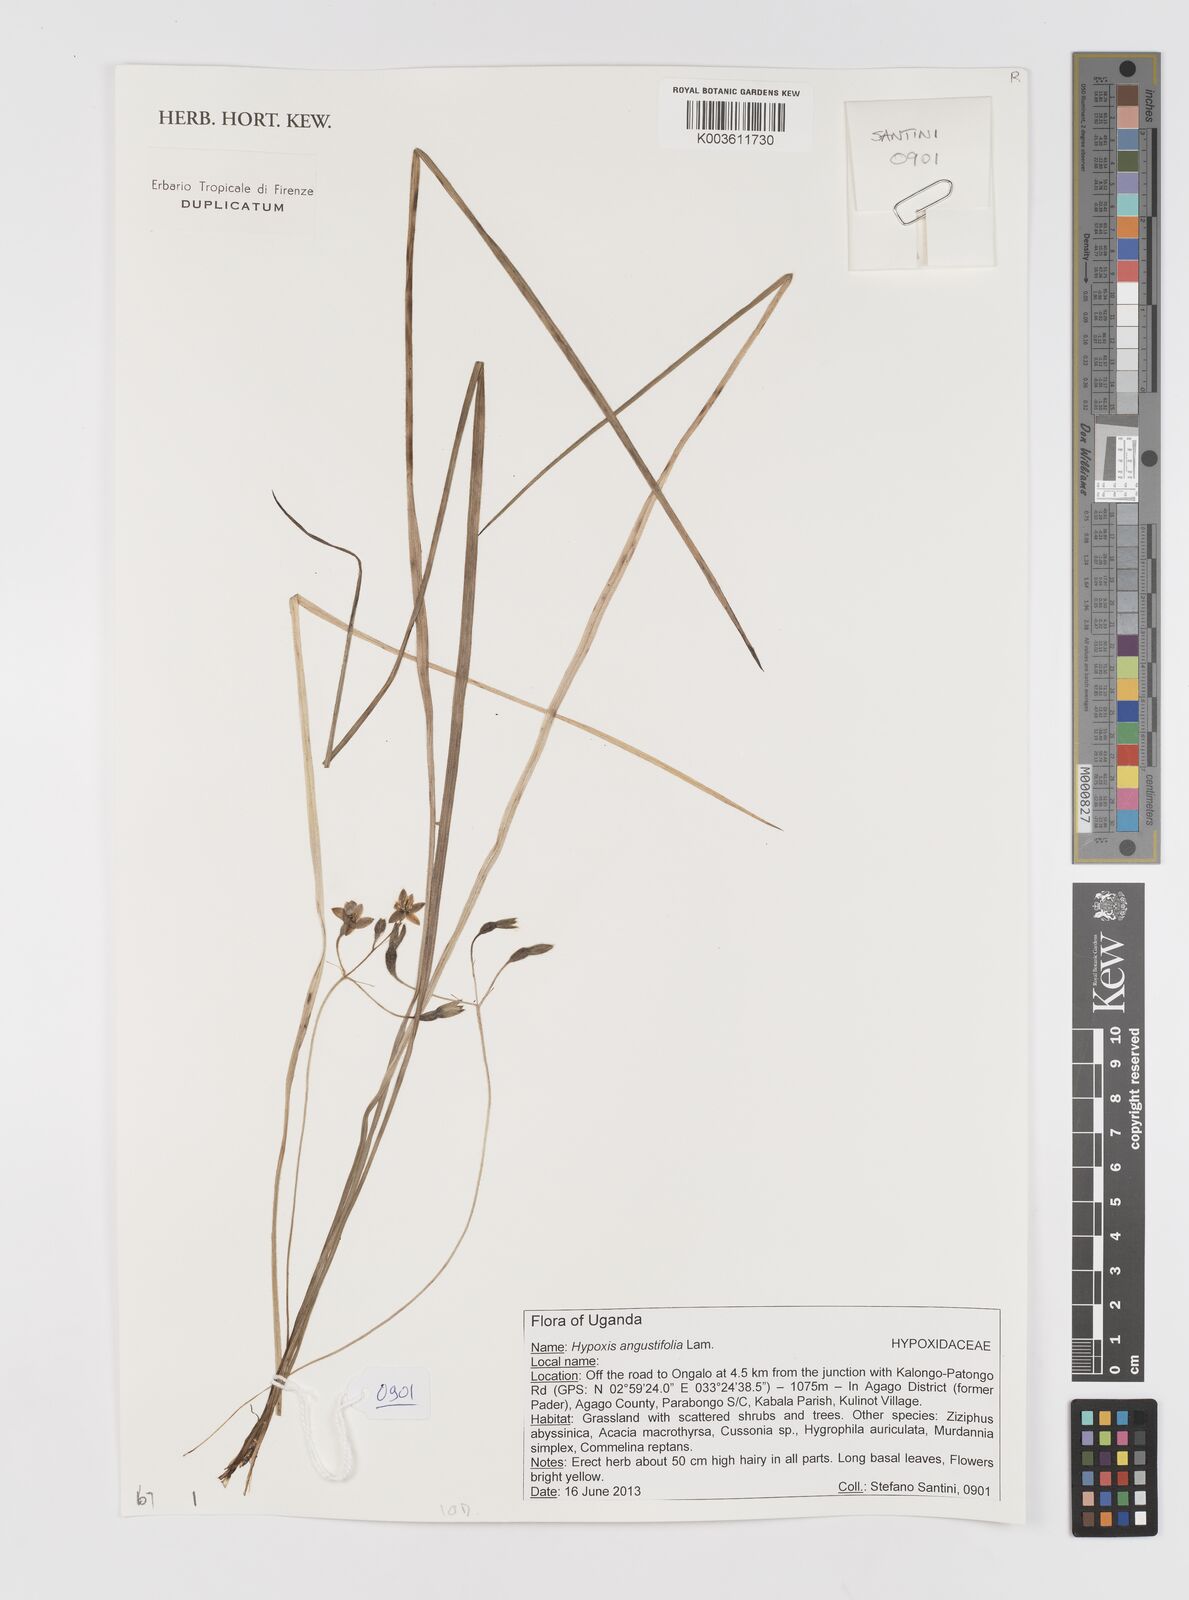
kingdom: Plantae
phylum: Tracheophyta
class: Liliopsida
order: Asparagales
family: Hypoxidaceae
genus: Hypoxis
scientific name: Hypoxis angustifolia
